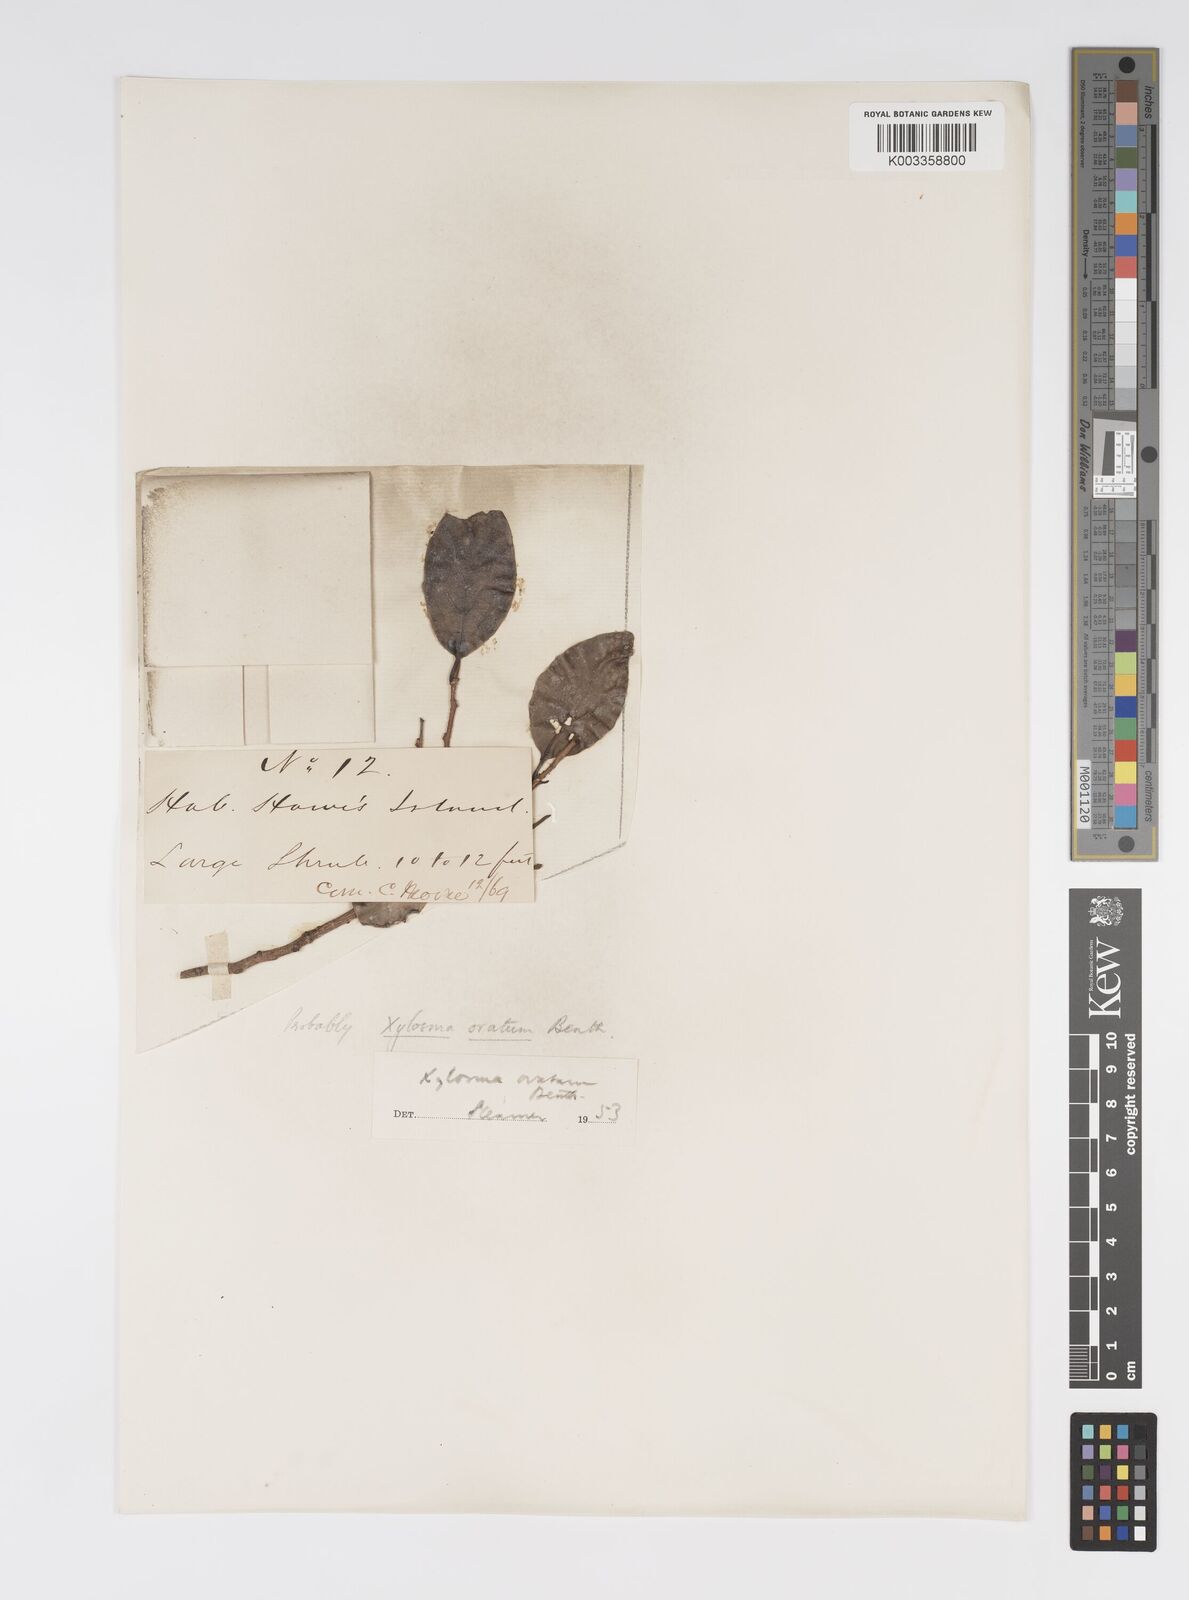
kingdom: Plantae
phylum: Tracheophyta
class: Magnoliopsida
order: Malpighiales
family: Salicaceae
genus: Xylosma
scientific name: Xylosma maidenii
